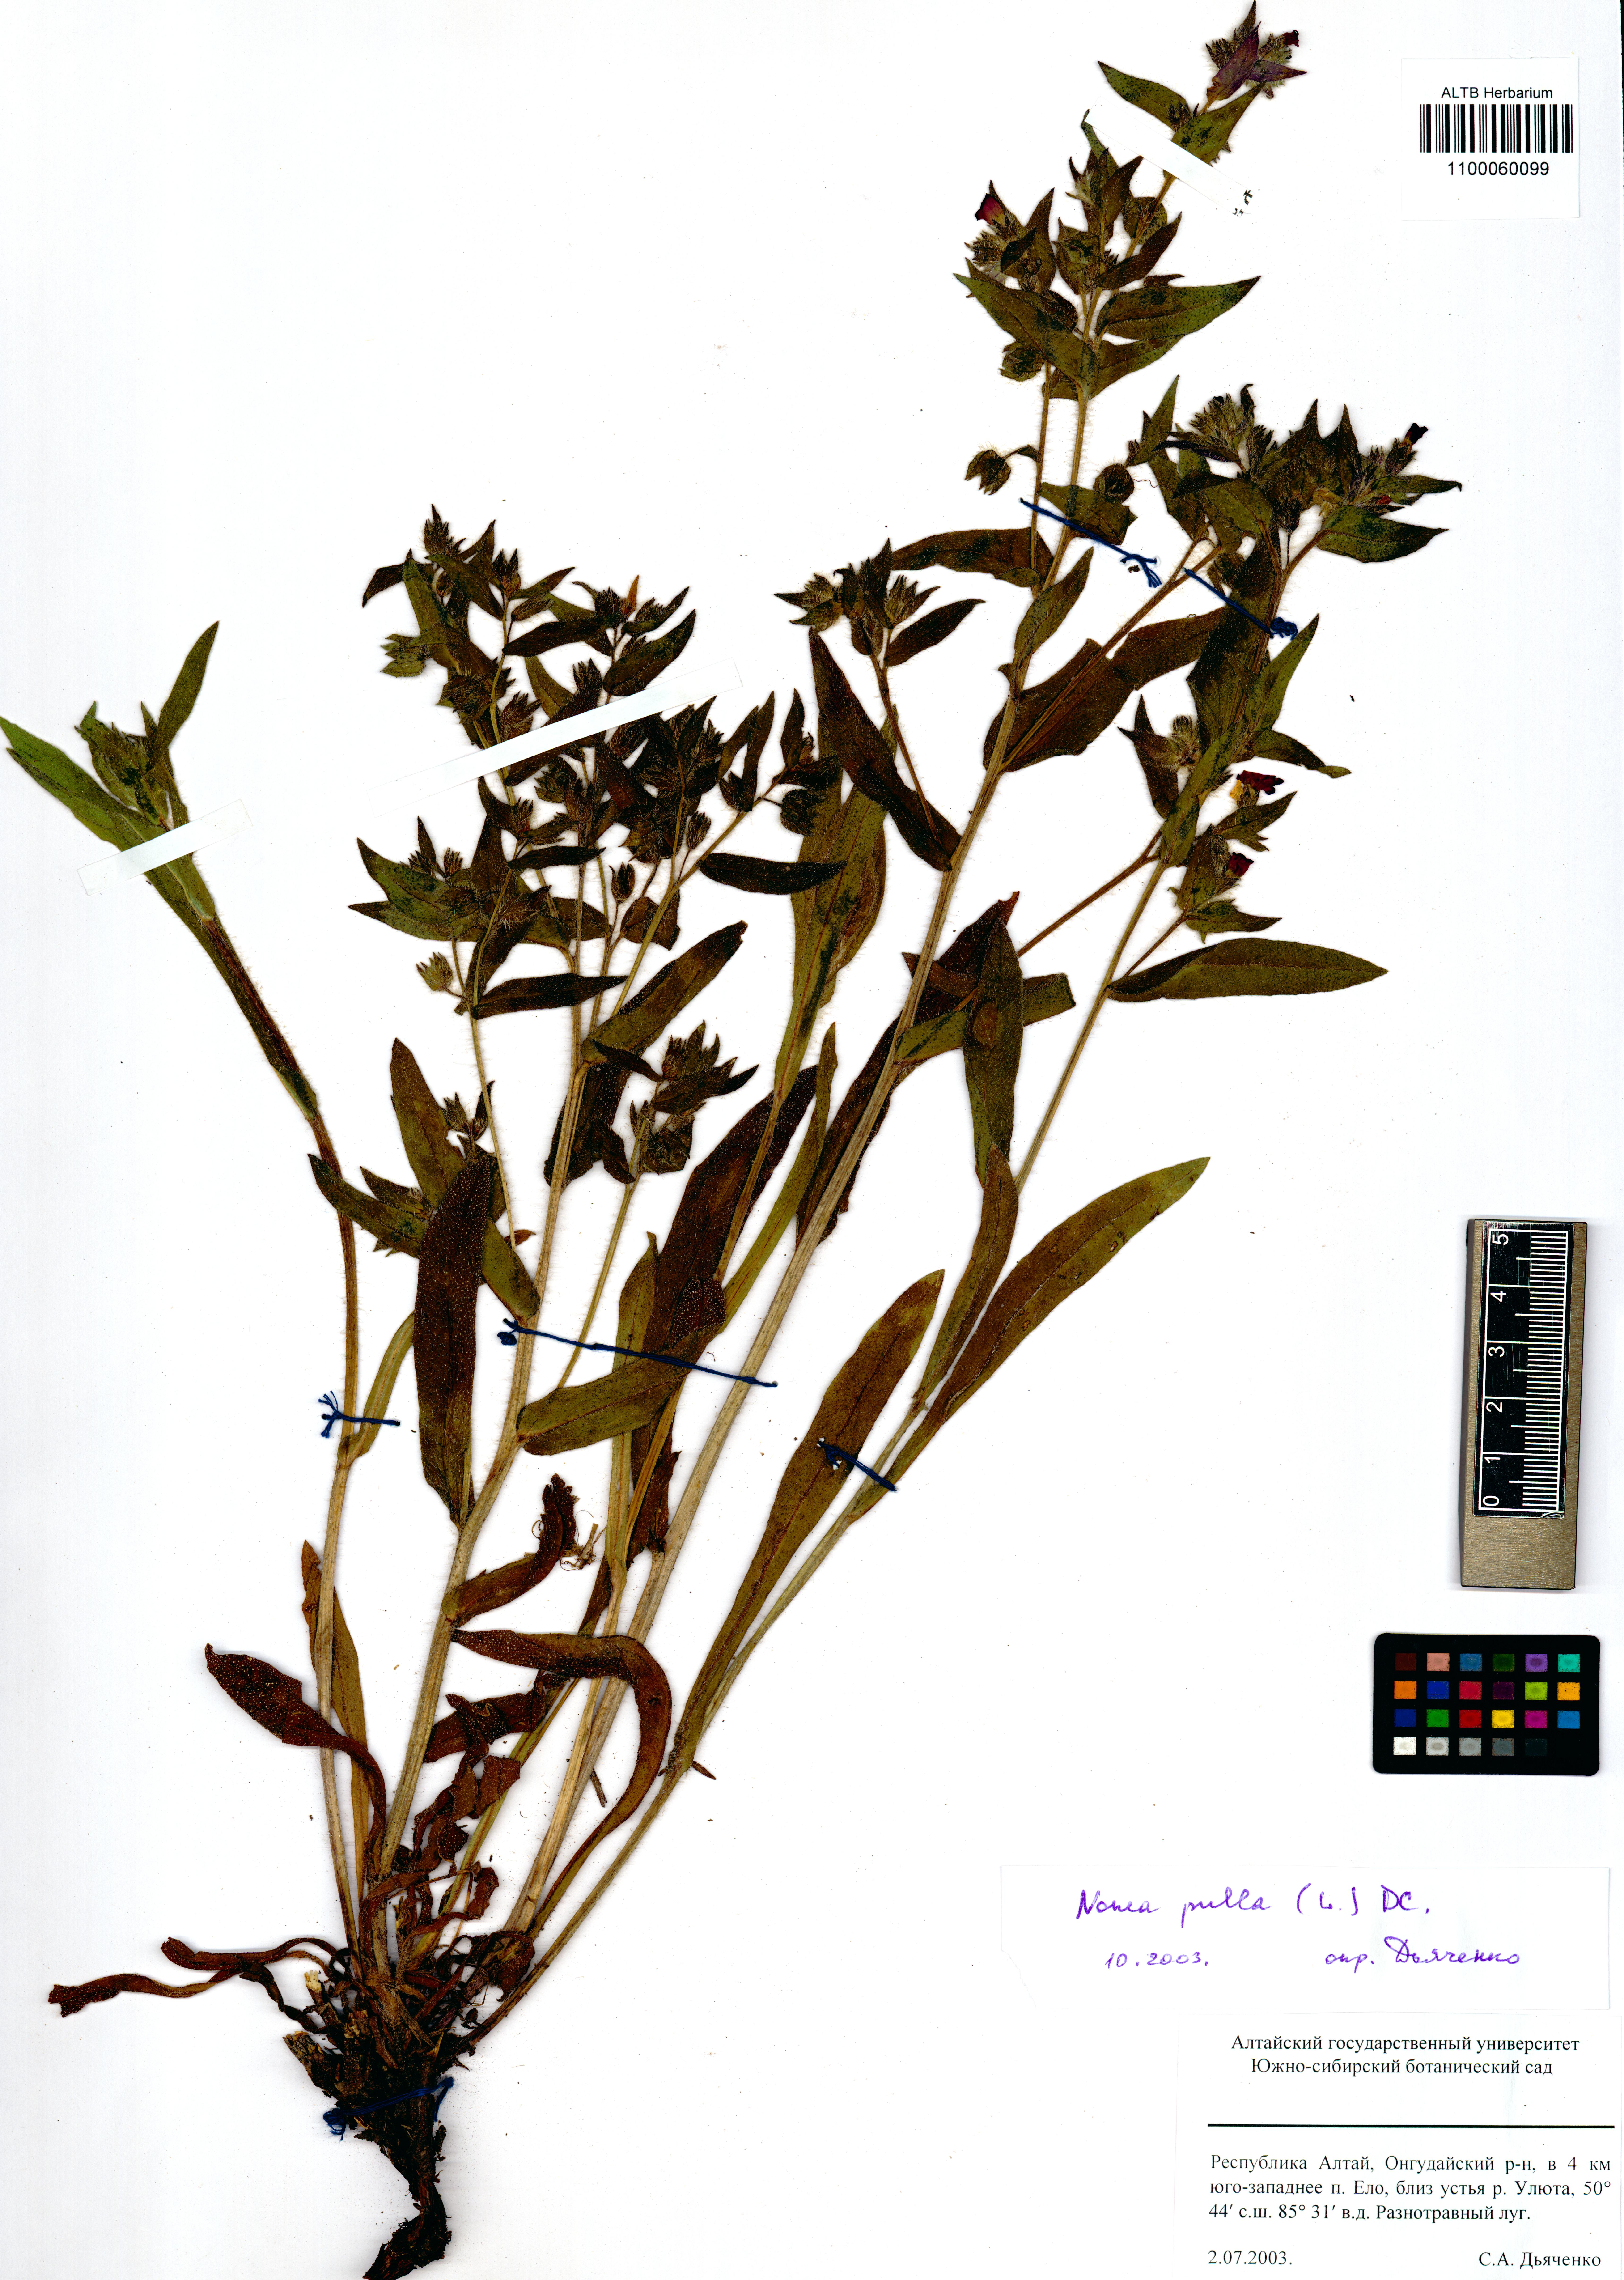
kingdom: Plantae
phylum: Tracheophyta
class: Magnoliopsida
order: Boraginales
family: Boraginaceae
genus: Nonea
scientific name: Nonea pulla
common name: Brown nonea
